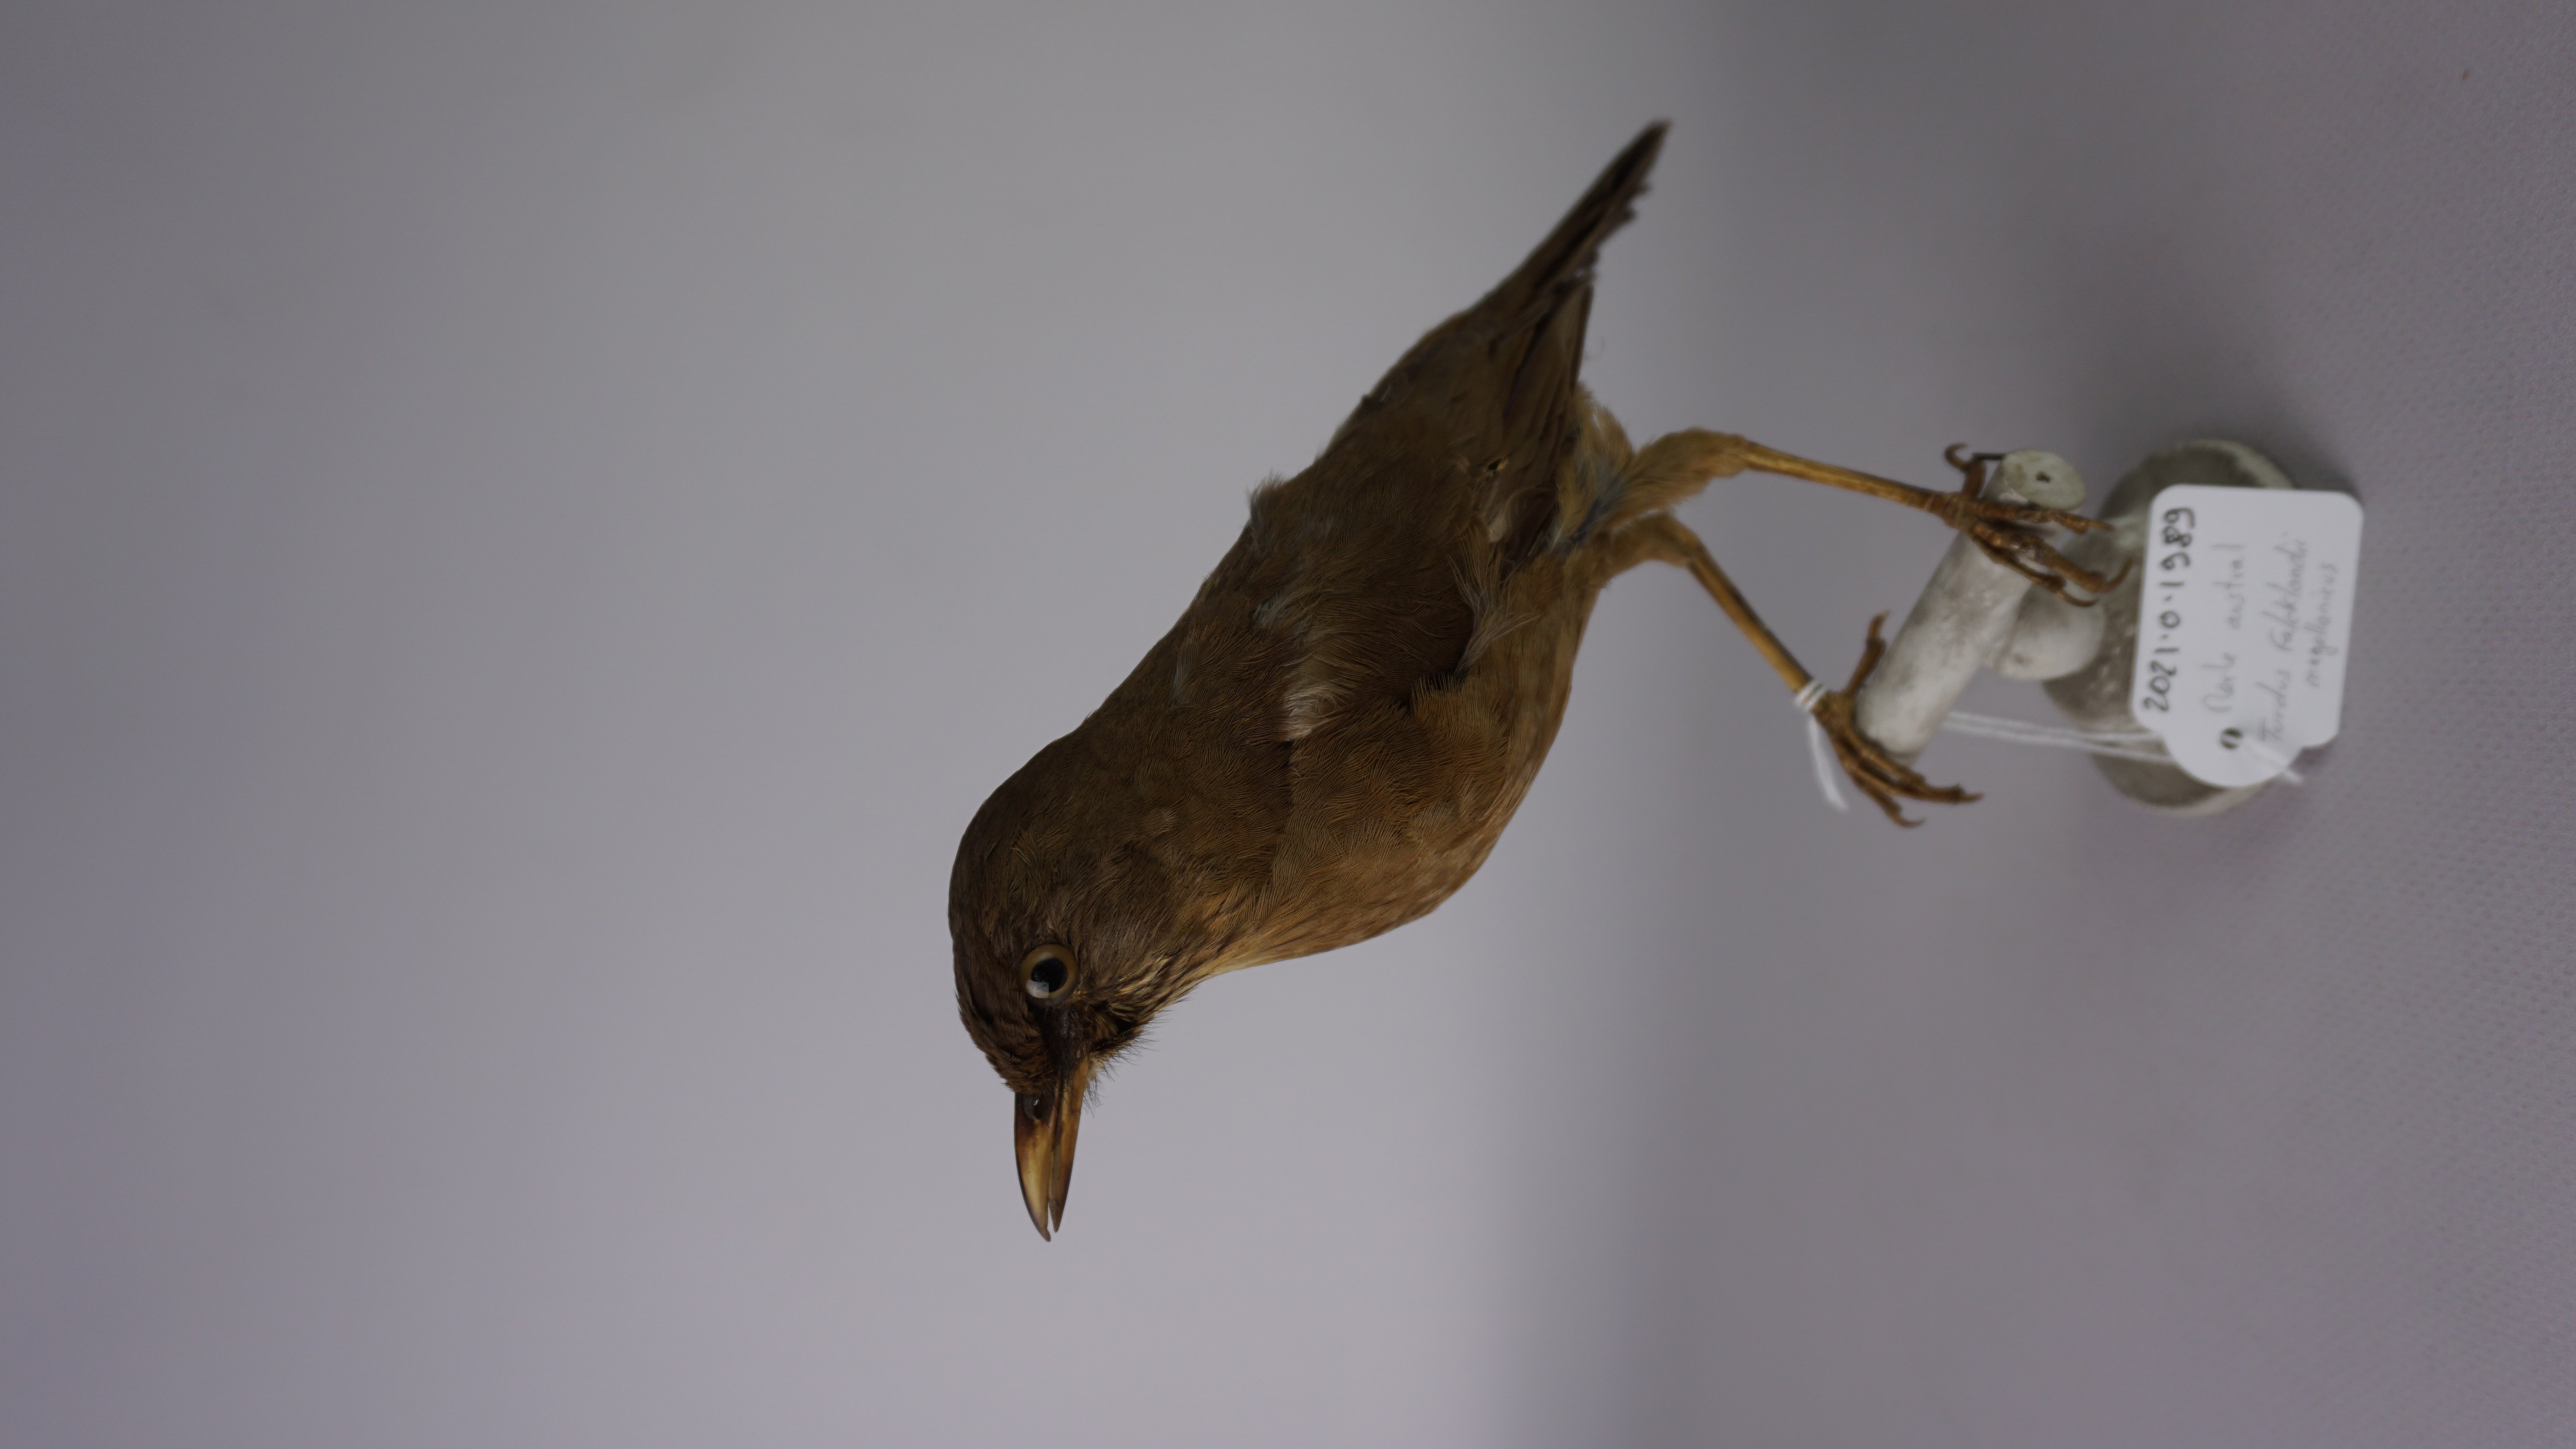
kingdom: Animalia
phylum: Chordata
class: Aves
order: Passeriformes
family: Turdidae
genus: Turdus
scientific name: Turdus falcklandii
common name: Austral thrush
